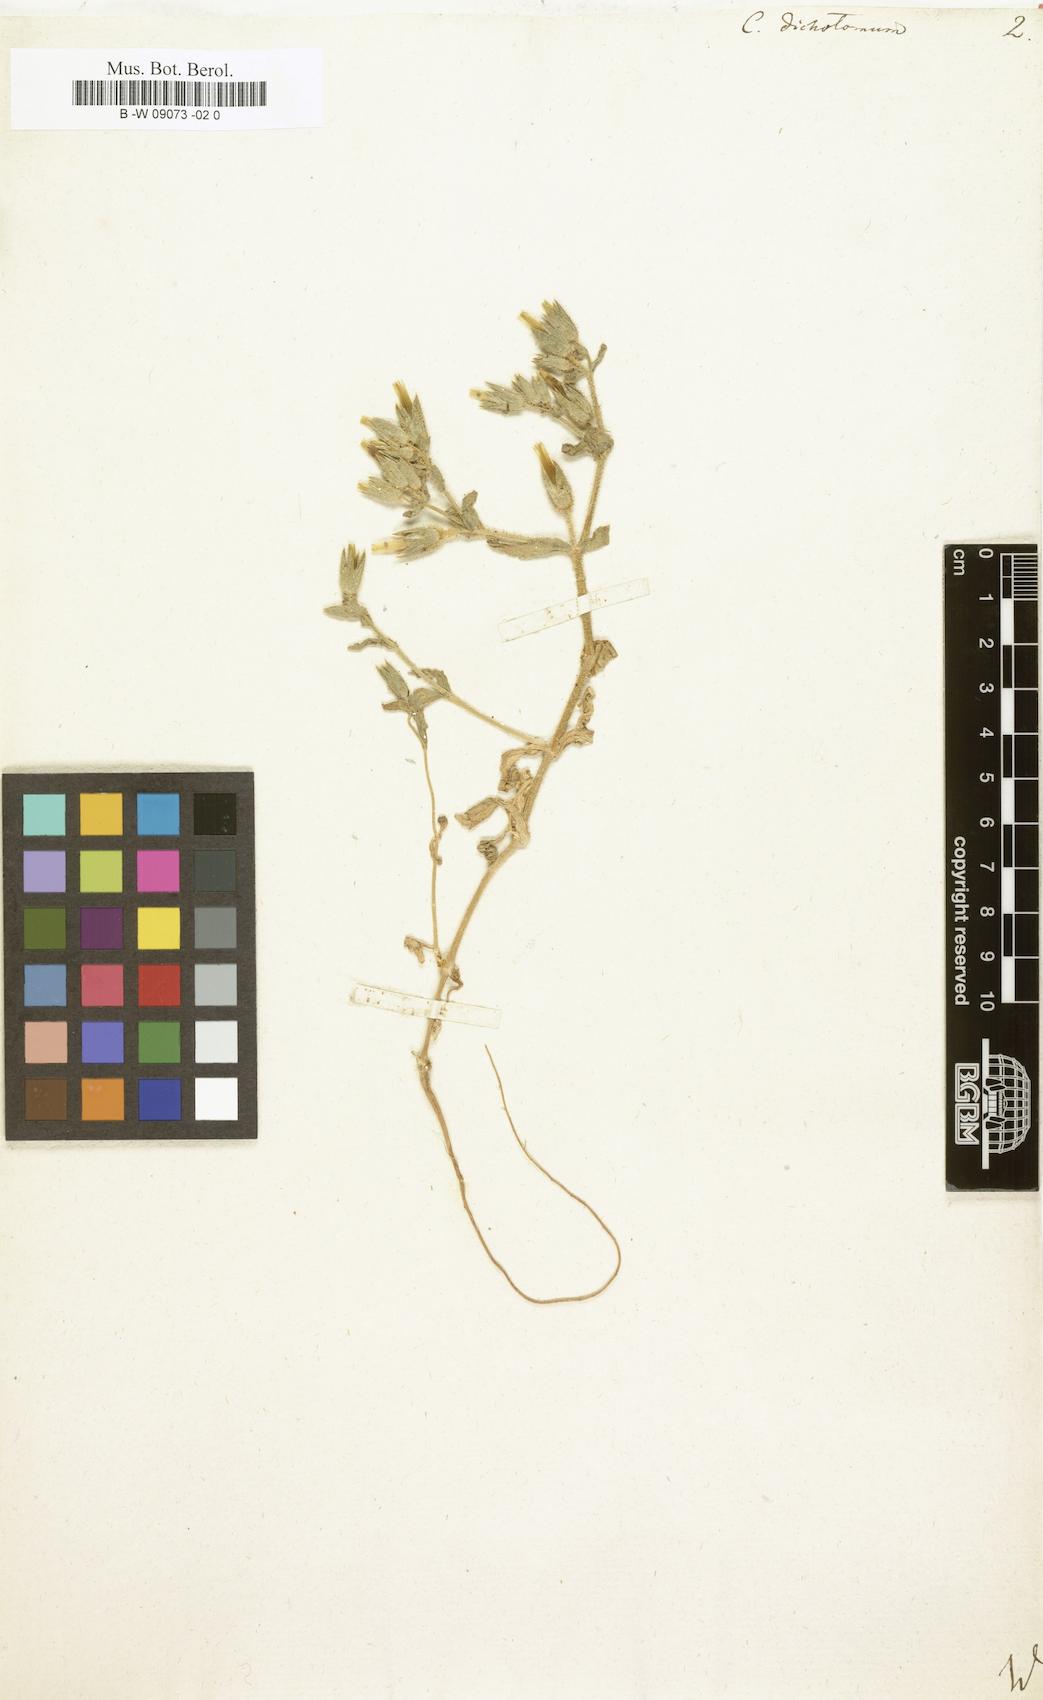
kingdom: Plantae
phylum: Tracheophyta
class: Magnoliopsida
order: Caryophyllales
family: Caryophyllaceae
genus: Cerastium
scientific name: Cerastium dichotomum
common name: Forked chickweed
